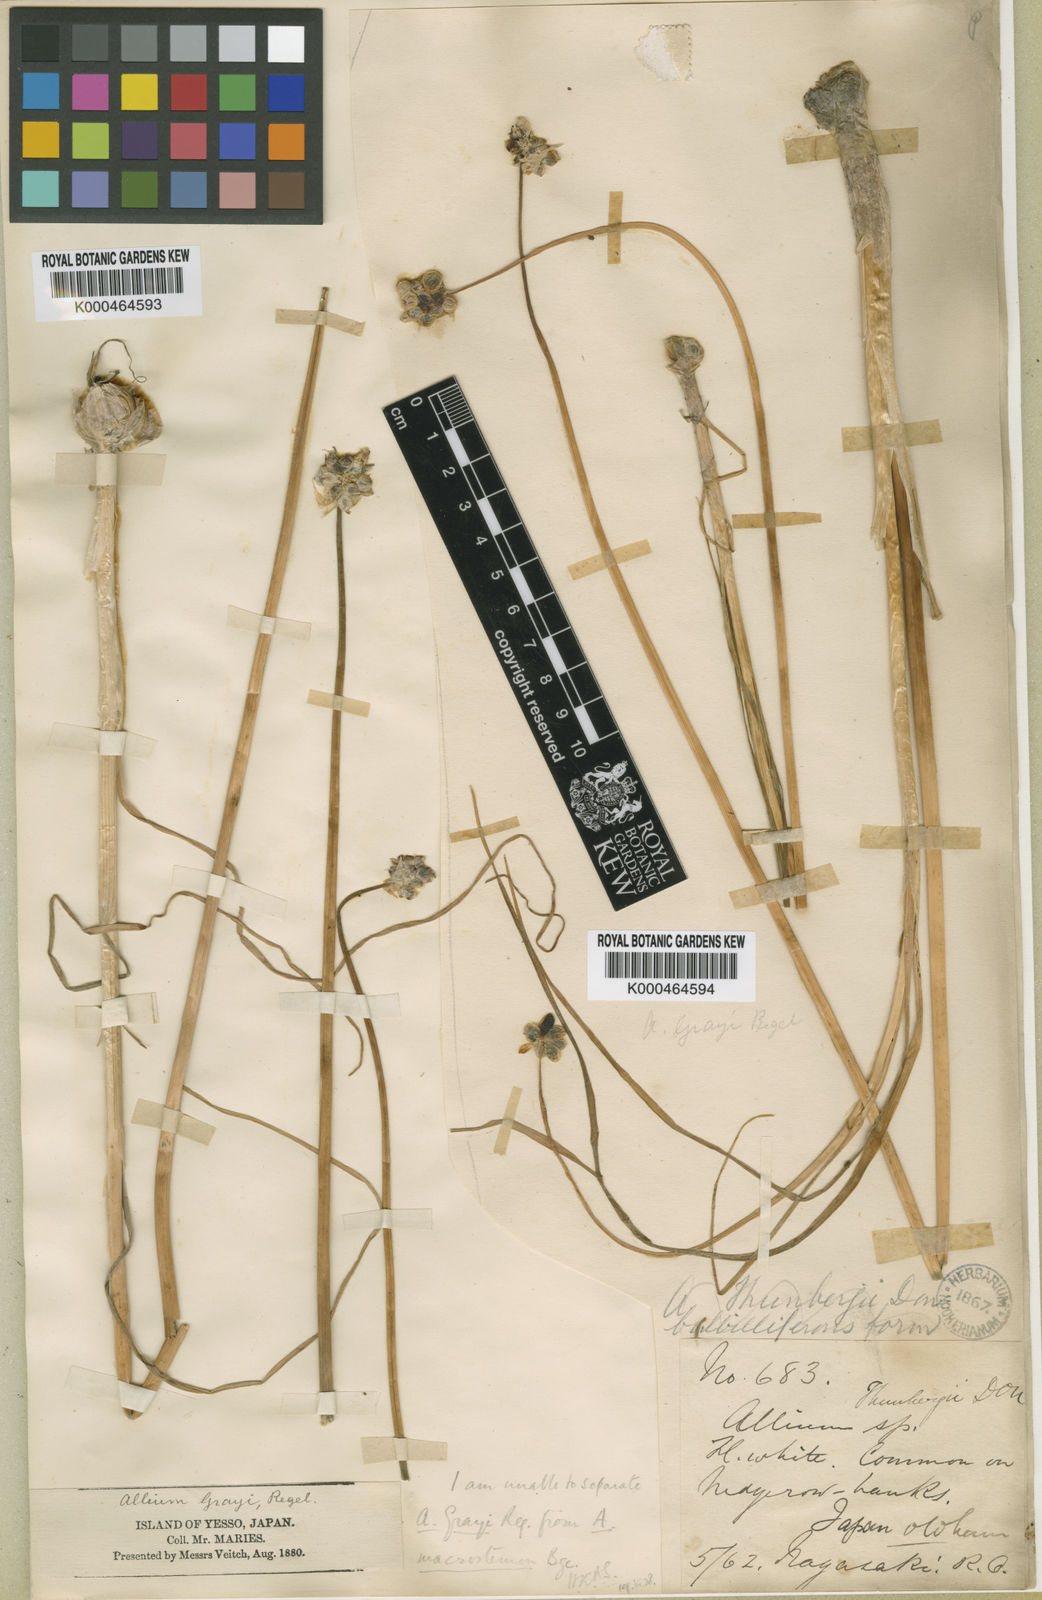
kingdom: Plantae
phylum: Tracheophyta
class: Liliopsida
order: Asparagales
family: Amaryllidaceae
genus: Allium
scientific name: Allium macrostemon
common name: Chinese garlic
